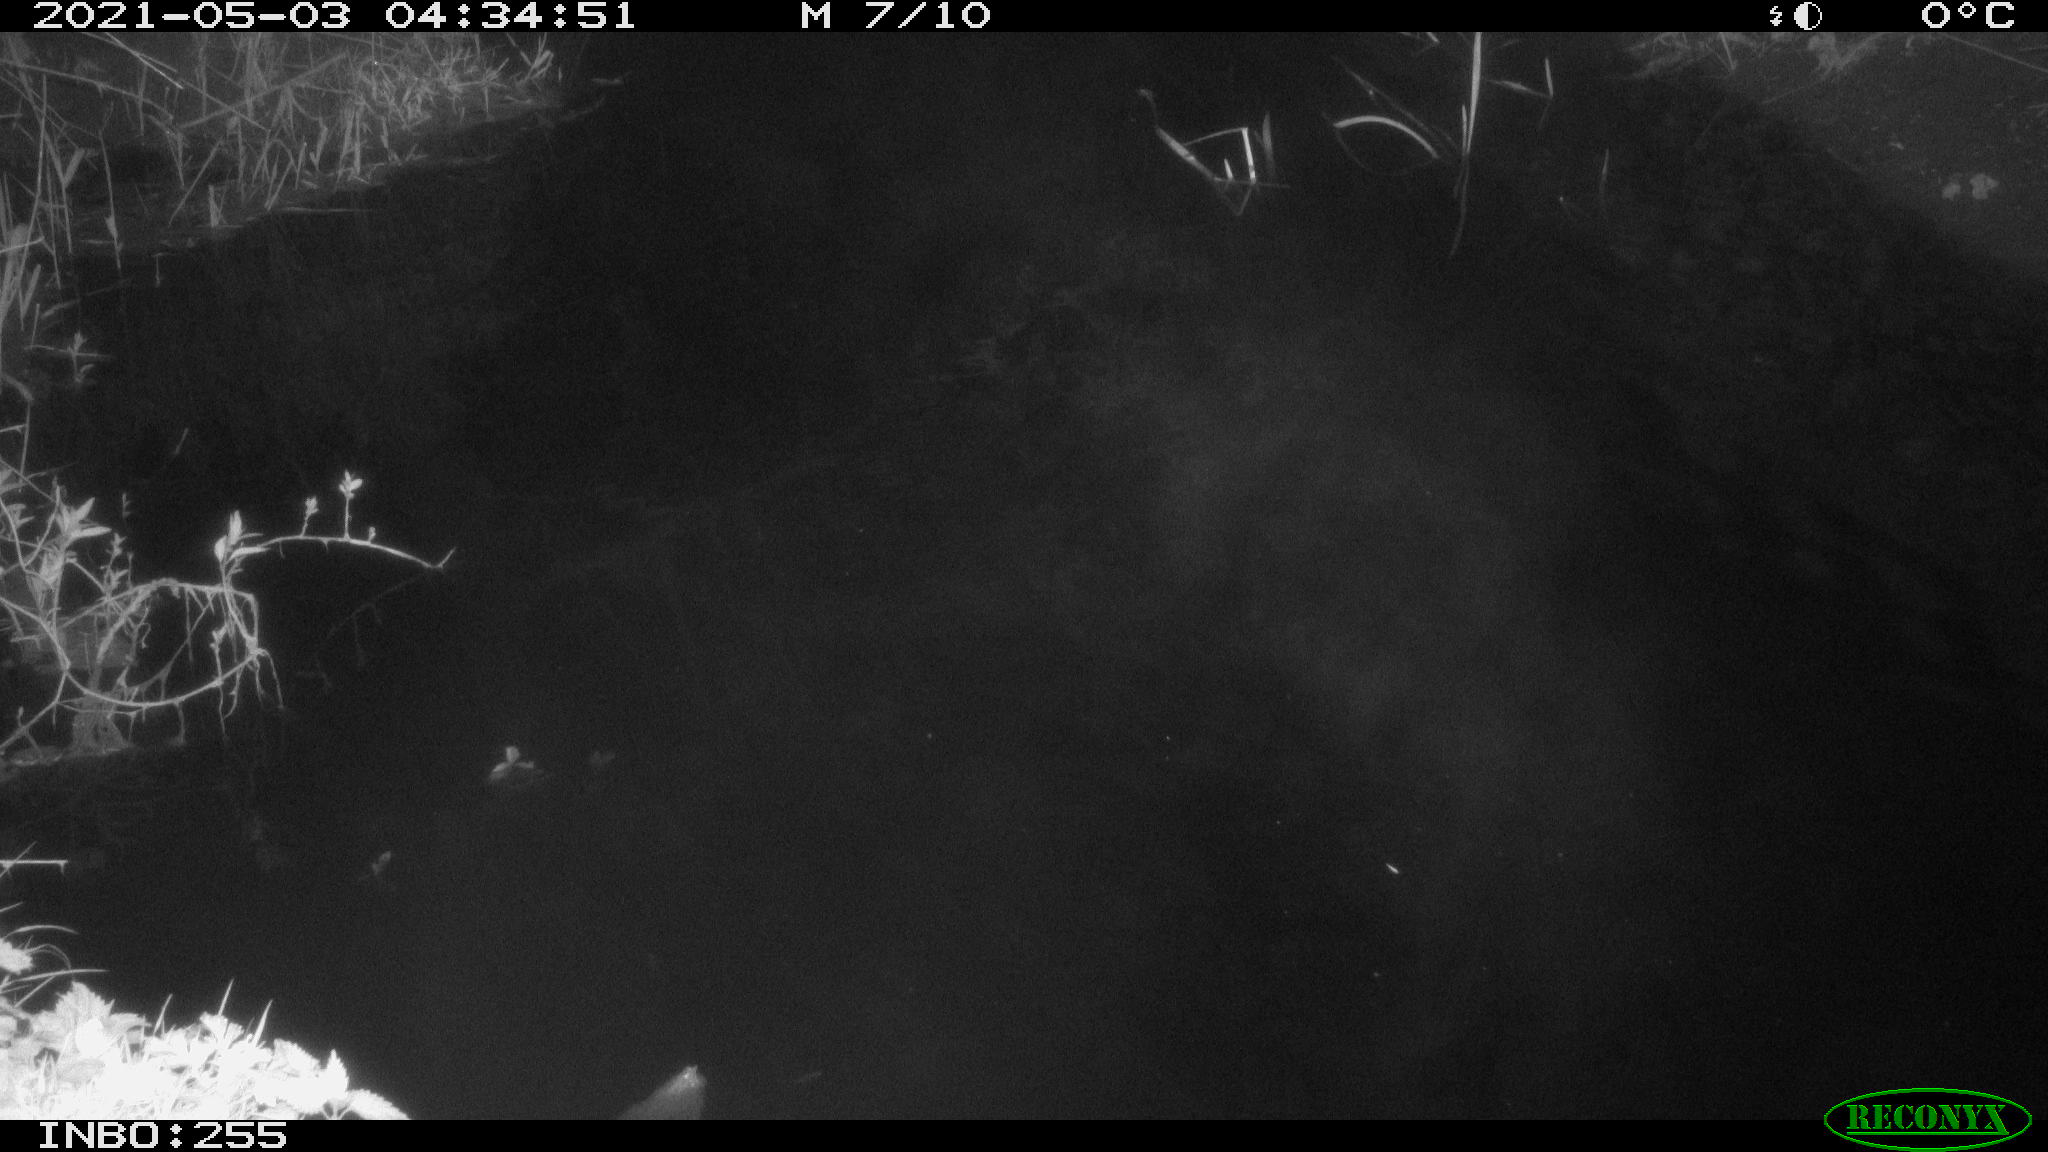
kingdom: Animalia
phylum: Chordata
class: Aves
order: Anseriformes
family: Anatidae
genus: Anas
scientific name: Anas platyrhynchos
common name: Mallard
